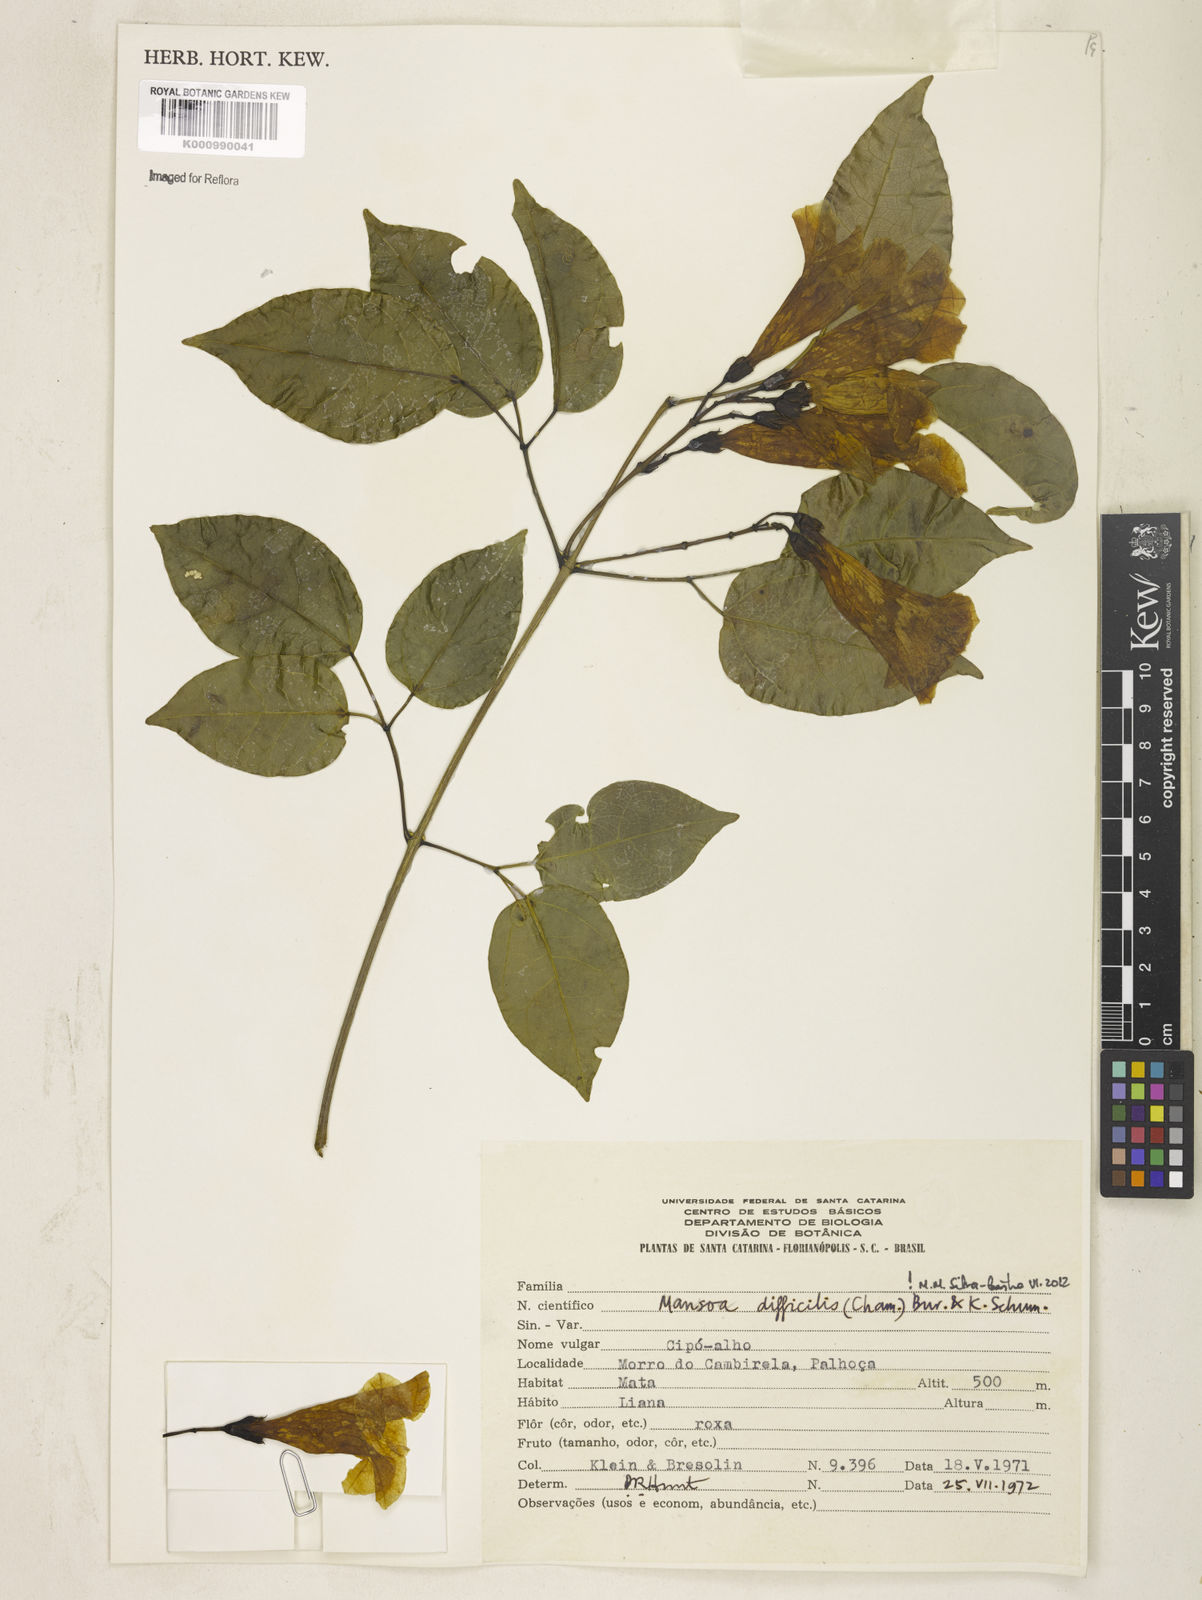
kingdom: Plantae
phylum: Tracheophyta
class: Magnoliopsida
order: Lamiales
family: Bignoniaceae
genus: Mansoa
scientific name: Mansoa difficilis
